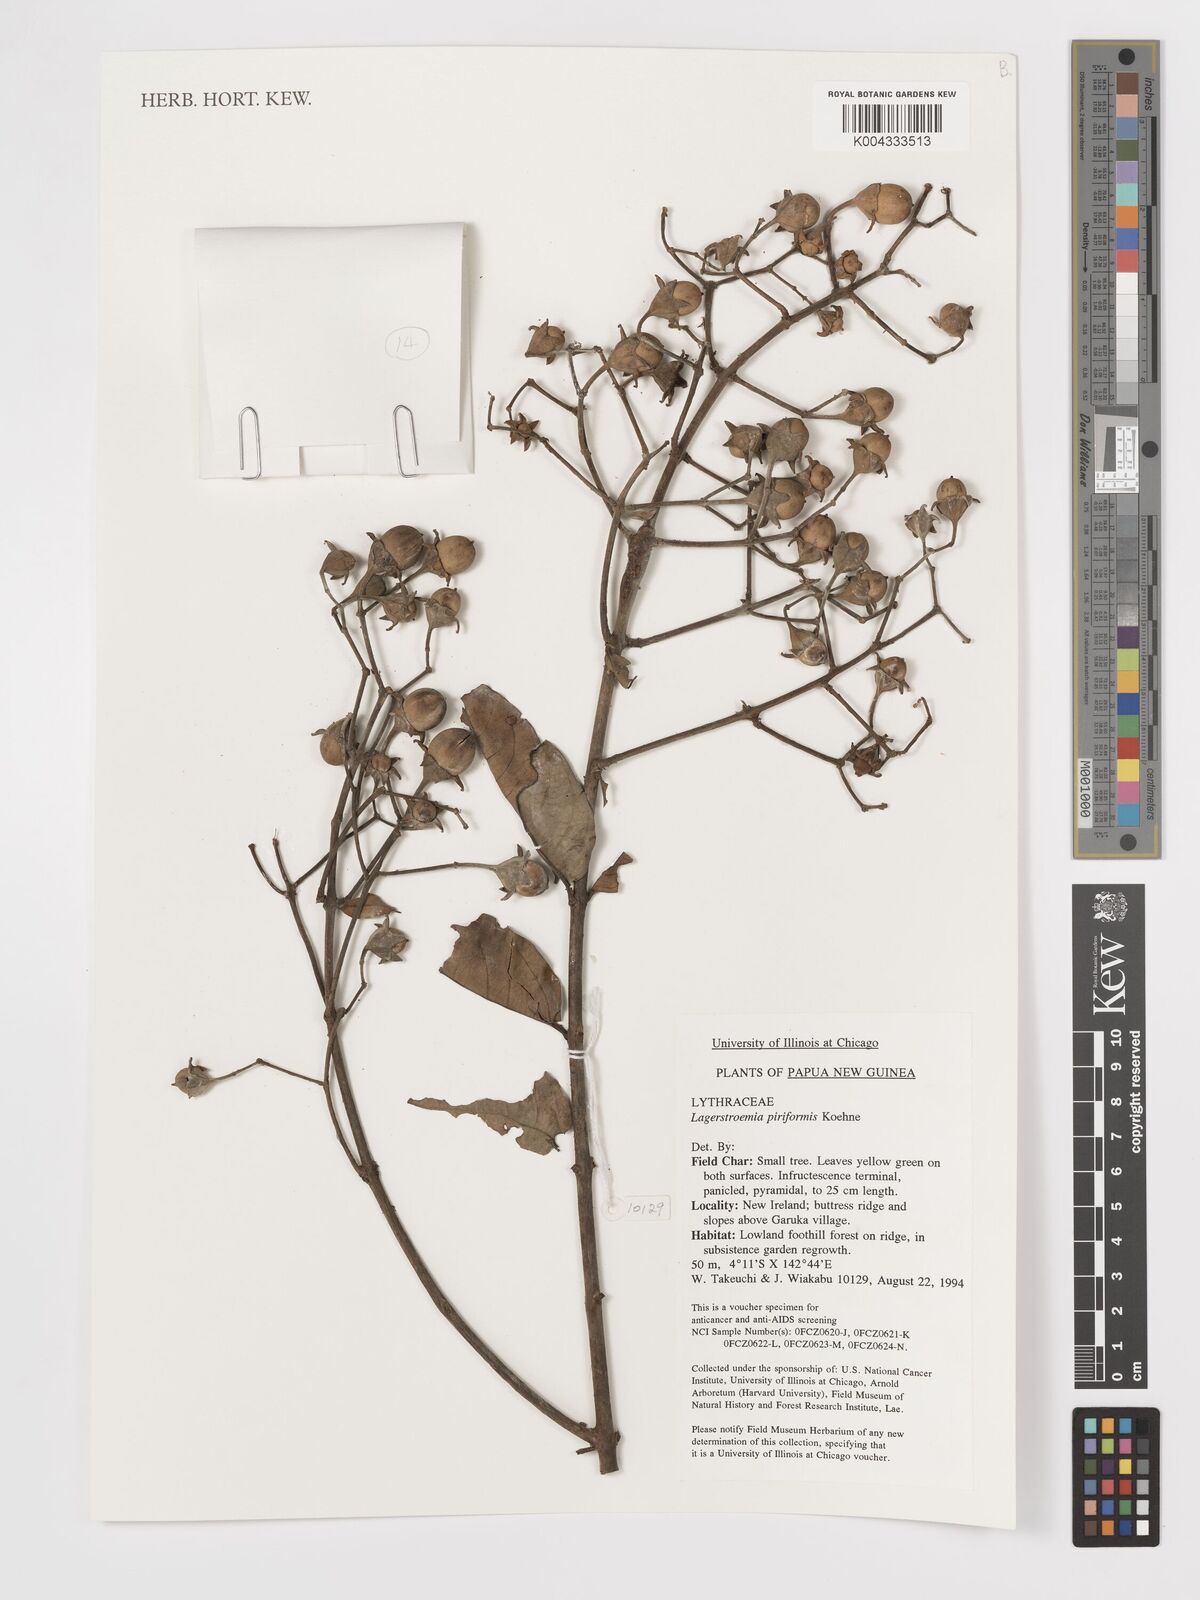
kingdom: Plantae
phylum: Tracheophyta
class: Magnoliopsida
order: Myrtales
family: Lythraceae
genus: Lagerstroemia
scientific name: Lagerstroemia celebica
